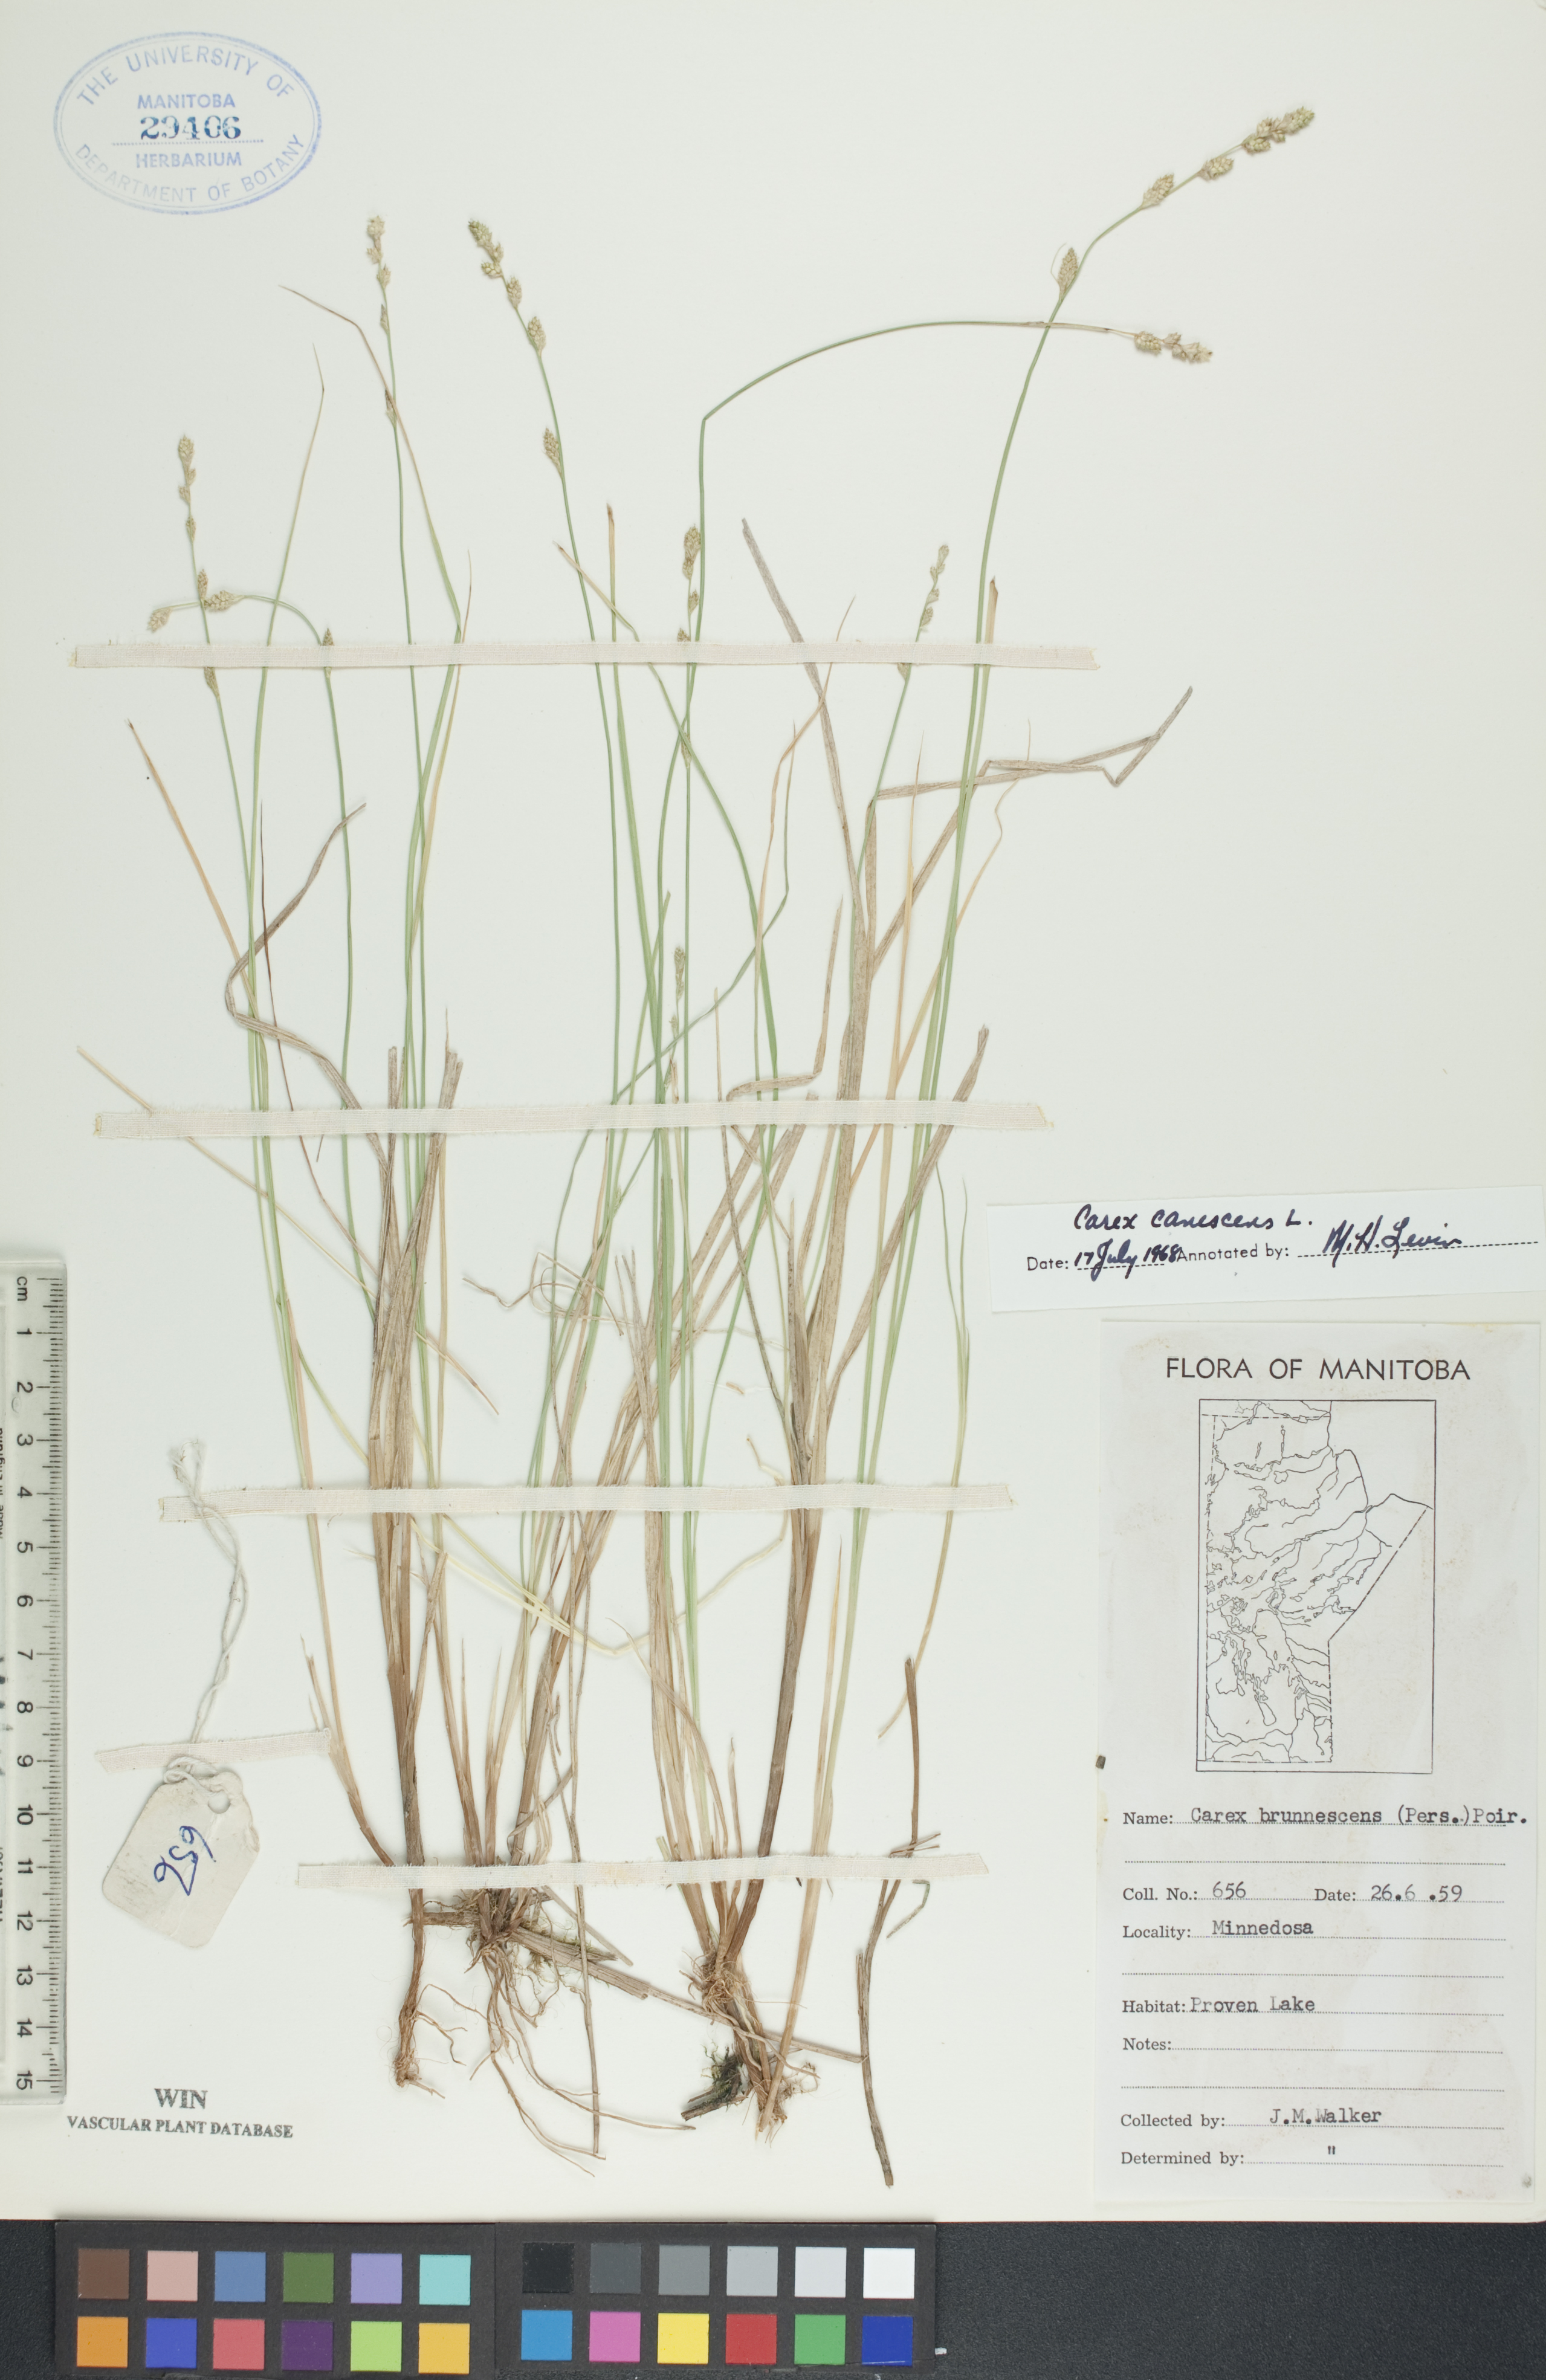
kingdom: Plantae
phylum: Tracheophyta
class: Liliopsida
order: Poales
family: Cyperaceae
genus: Carex
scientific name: Carex canescens
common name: White sedge
